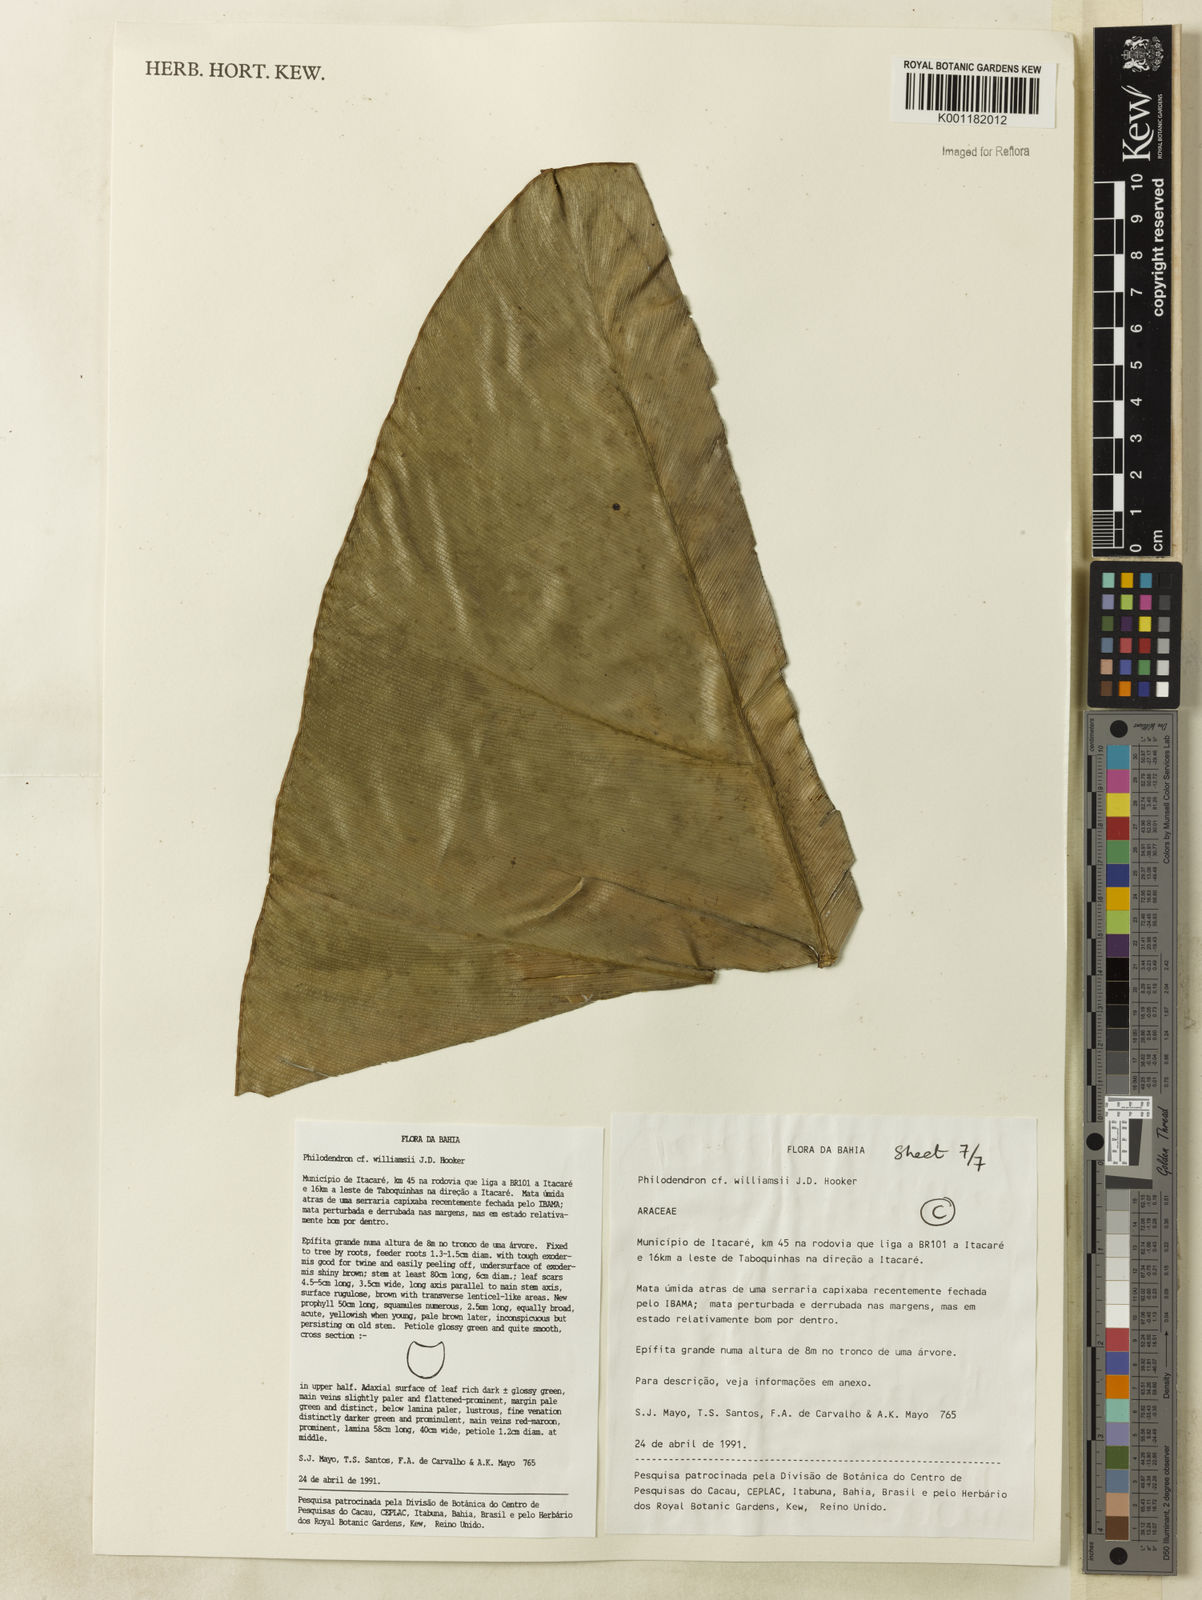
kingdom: Plantae
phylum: Tracheophyta
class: Liliopsida
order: Alismatales
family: Araceae
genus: Thaumatophyllum
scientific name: Thaumatophyllum williamsii
